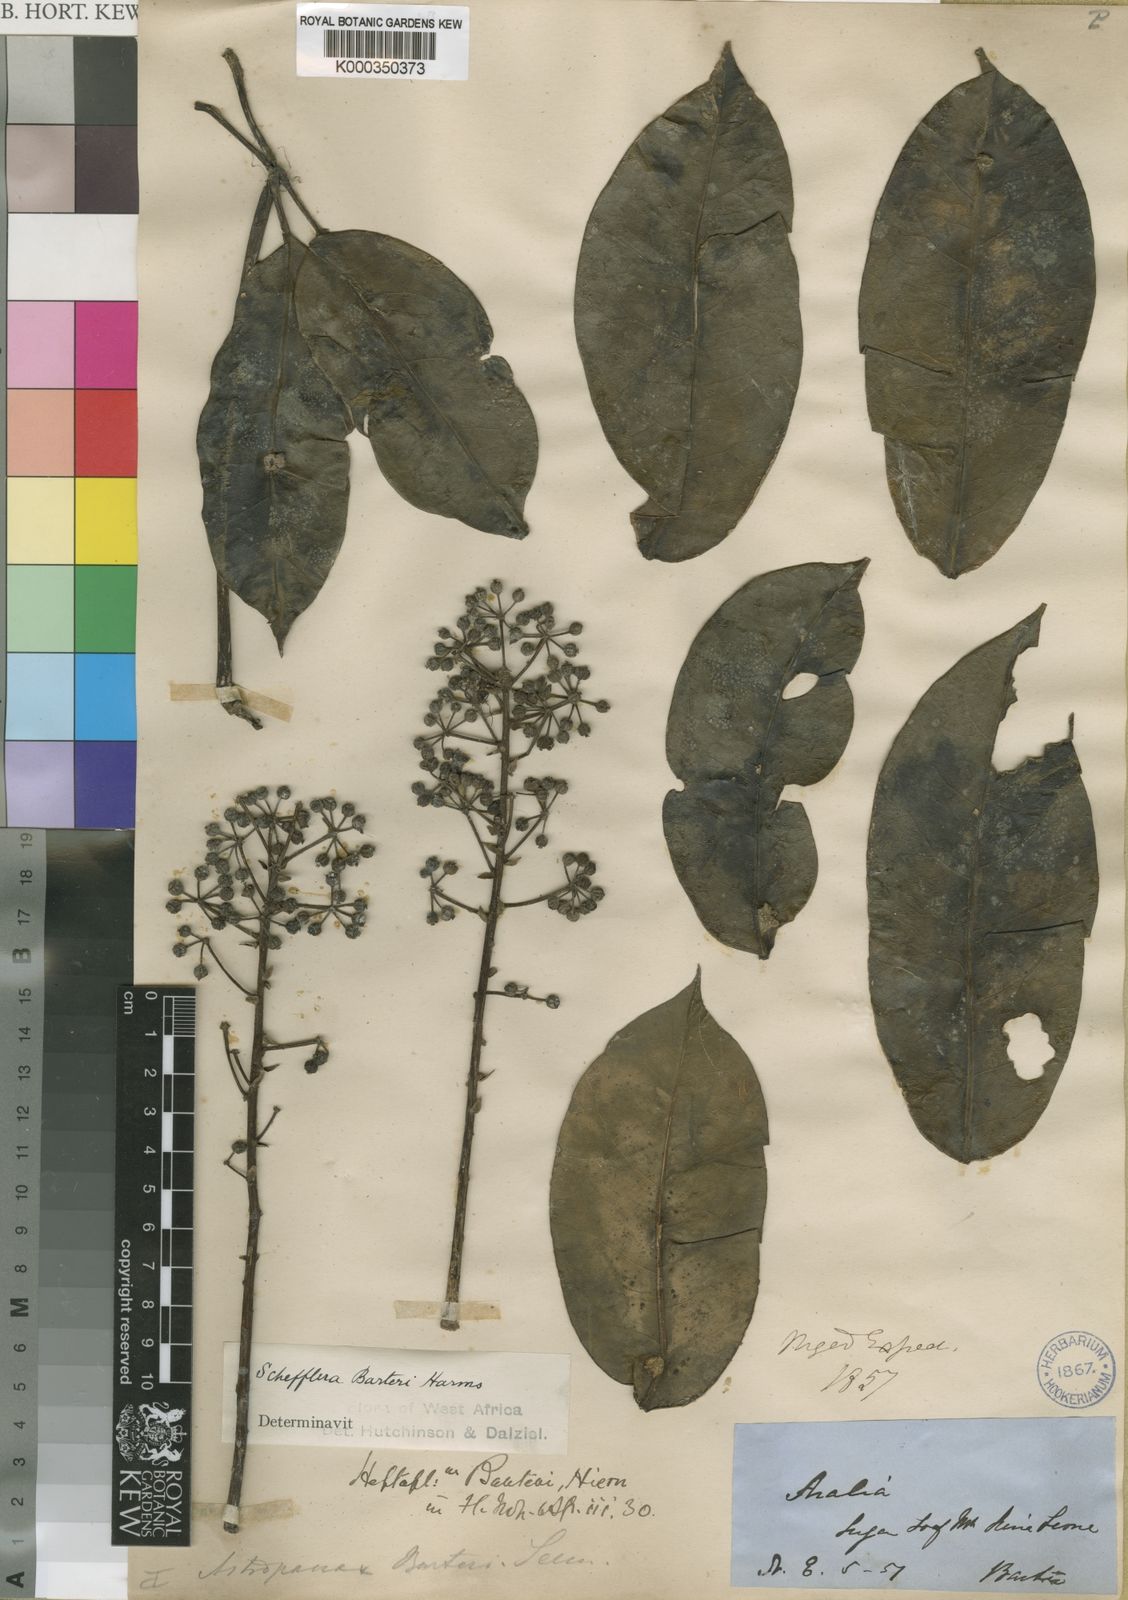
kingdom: Plantae
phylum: Tracheophyta
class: Magnoliopsida
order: Apiales
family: Araliaceae
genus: Astropanax
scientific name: Astropanax barteri
